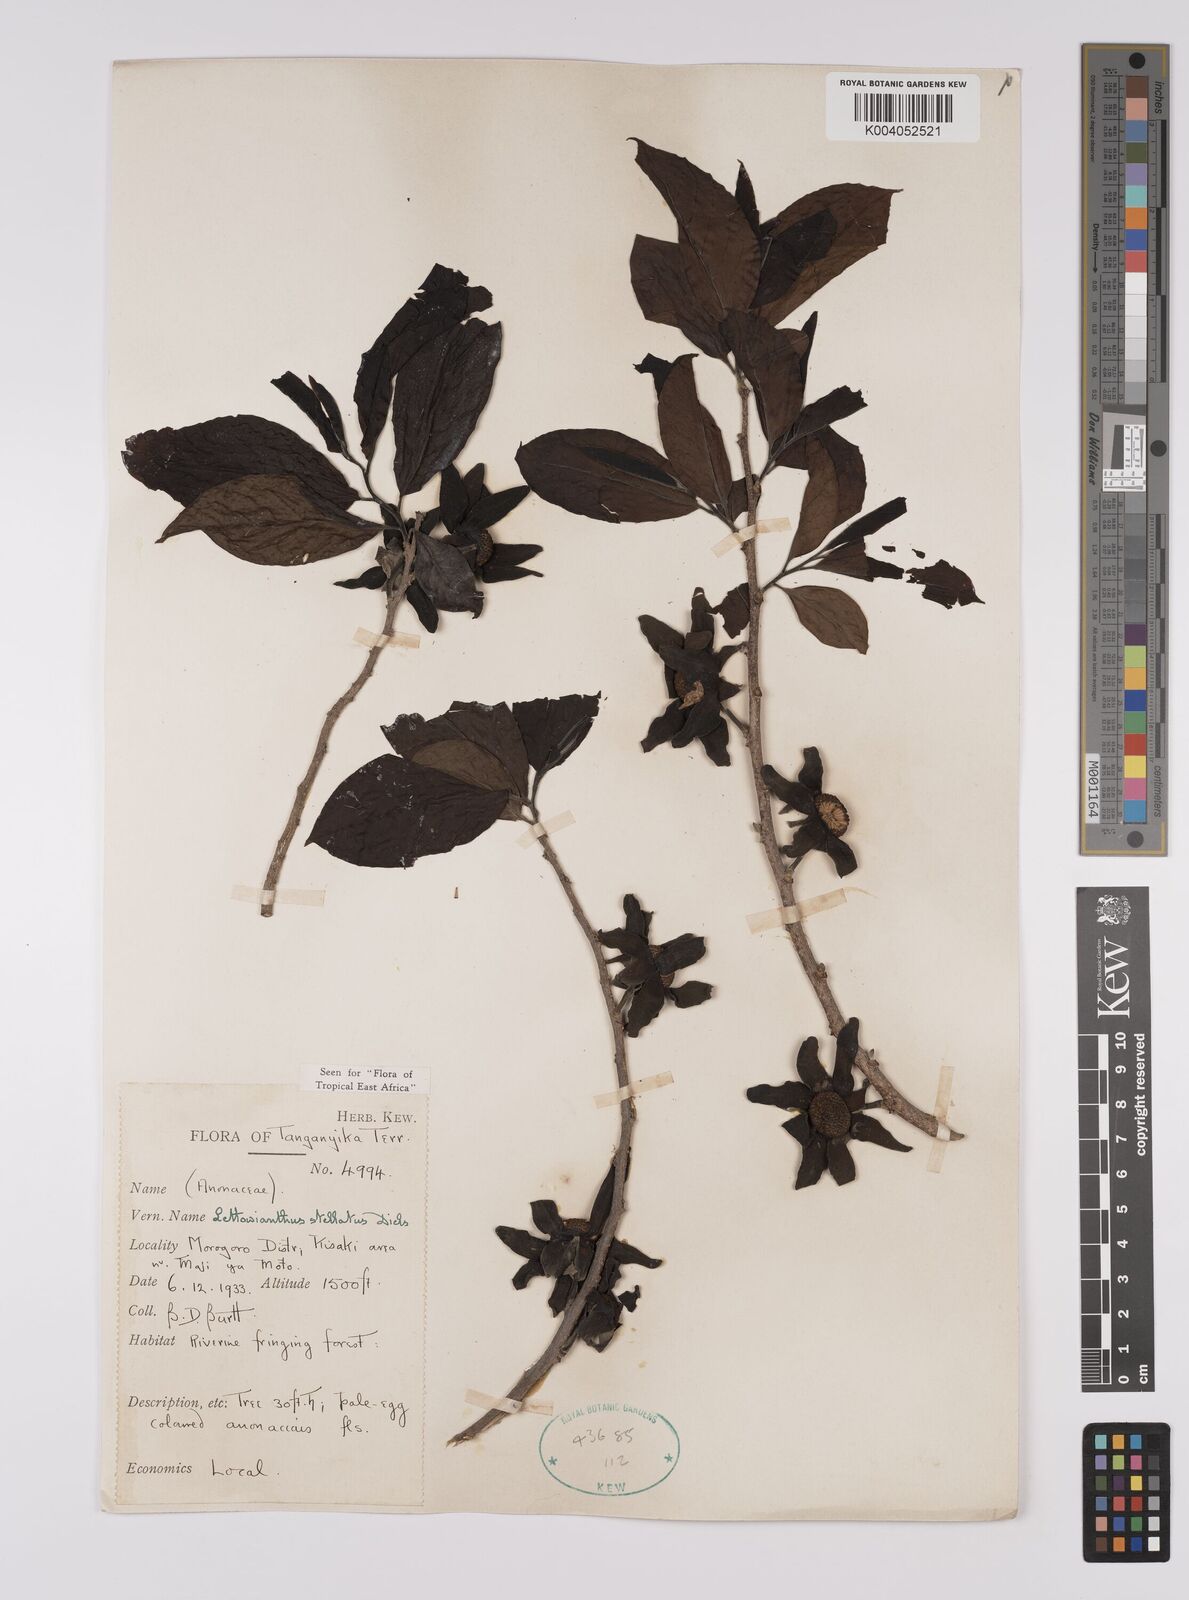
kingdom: Plantae
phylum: Tracheophyta
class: Magnoliopsida
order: Magnoliales
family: Annonaceae
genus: Lettowianthus
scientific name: Lettowianthus stellatus
